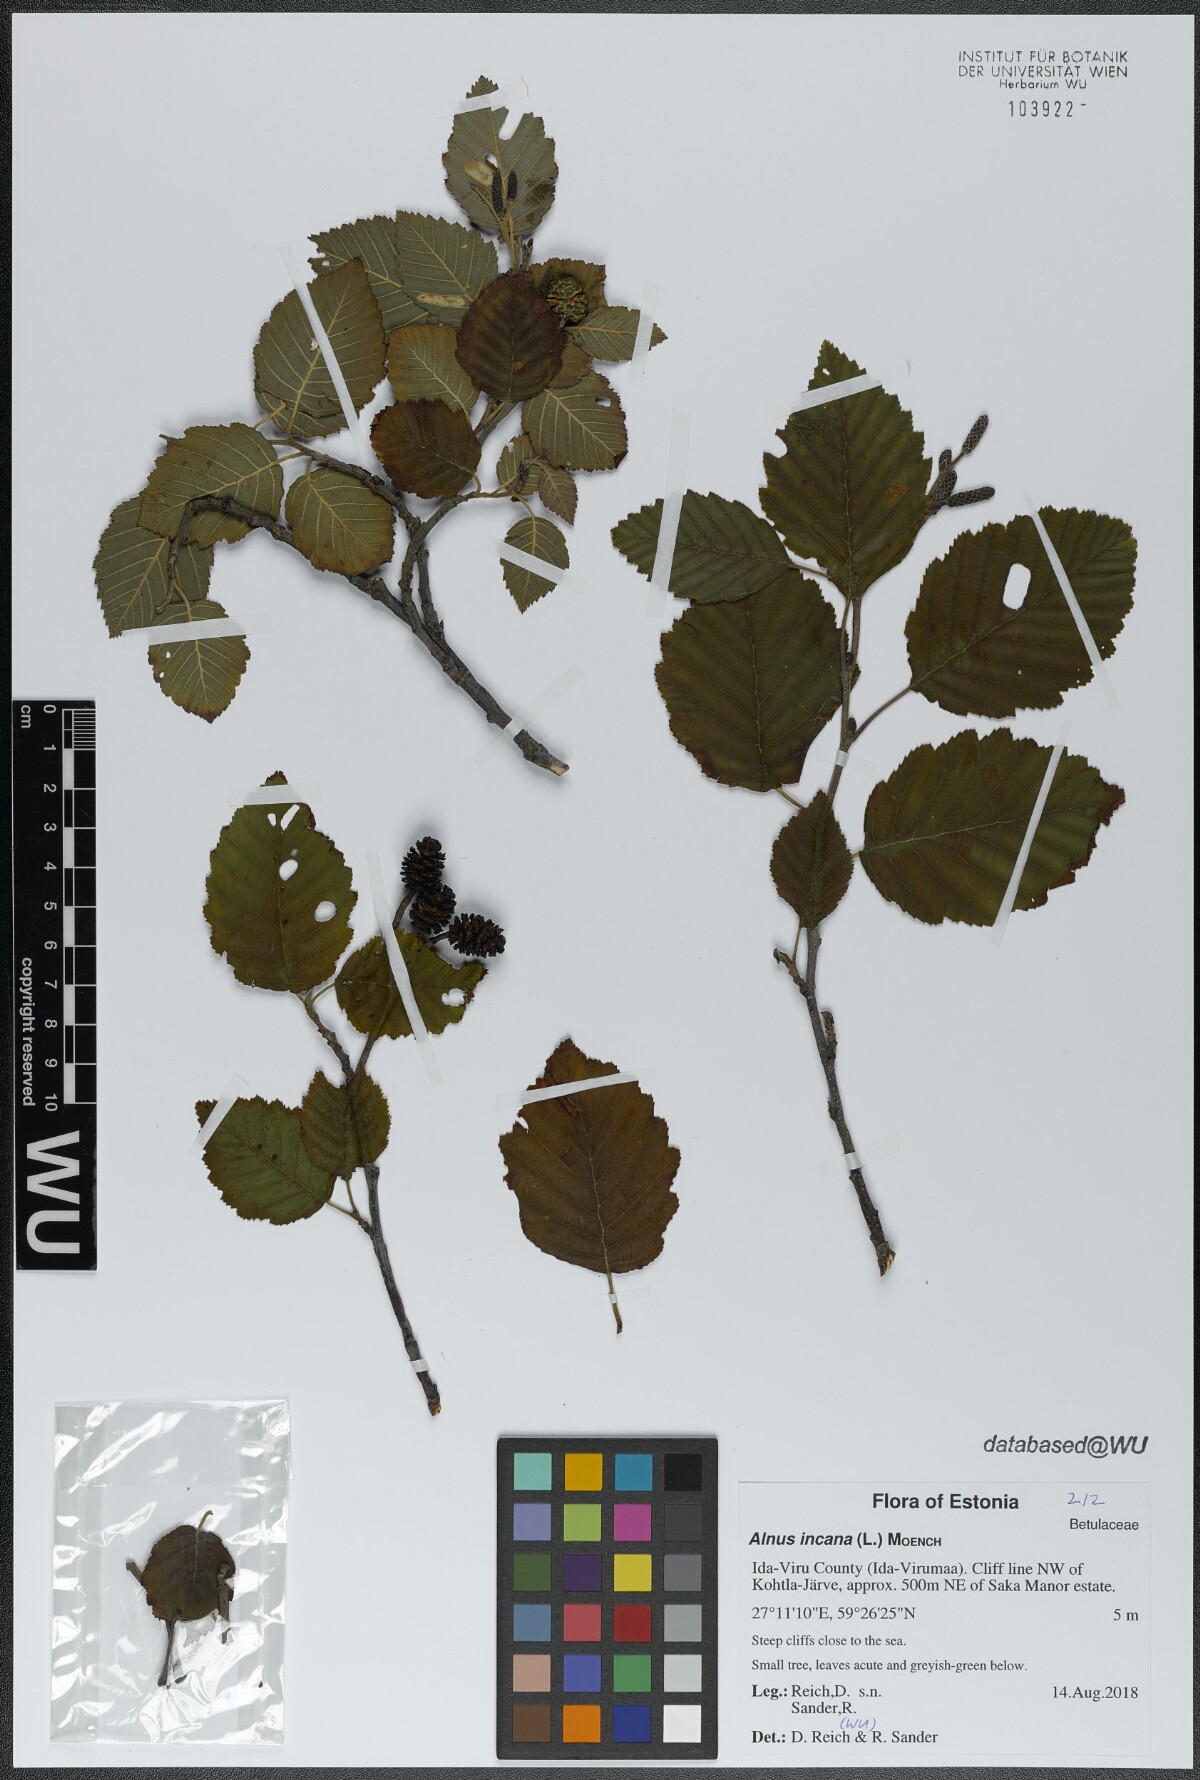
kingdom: Plantae
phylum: Tracheophyta
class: Magnoliopsida
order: Fagales
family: Betulaceae
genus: Alnus
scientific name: Alnus incana
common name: Grey alder
